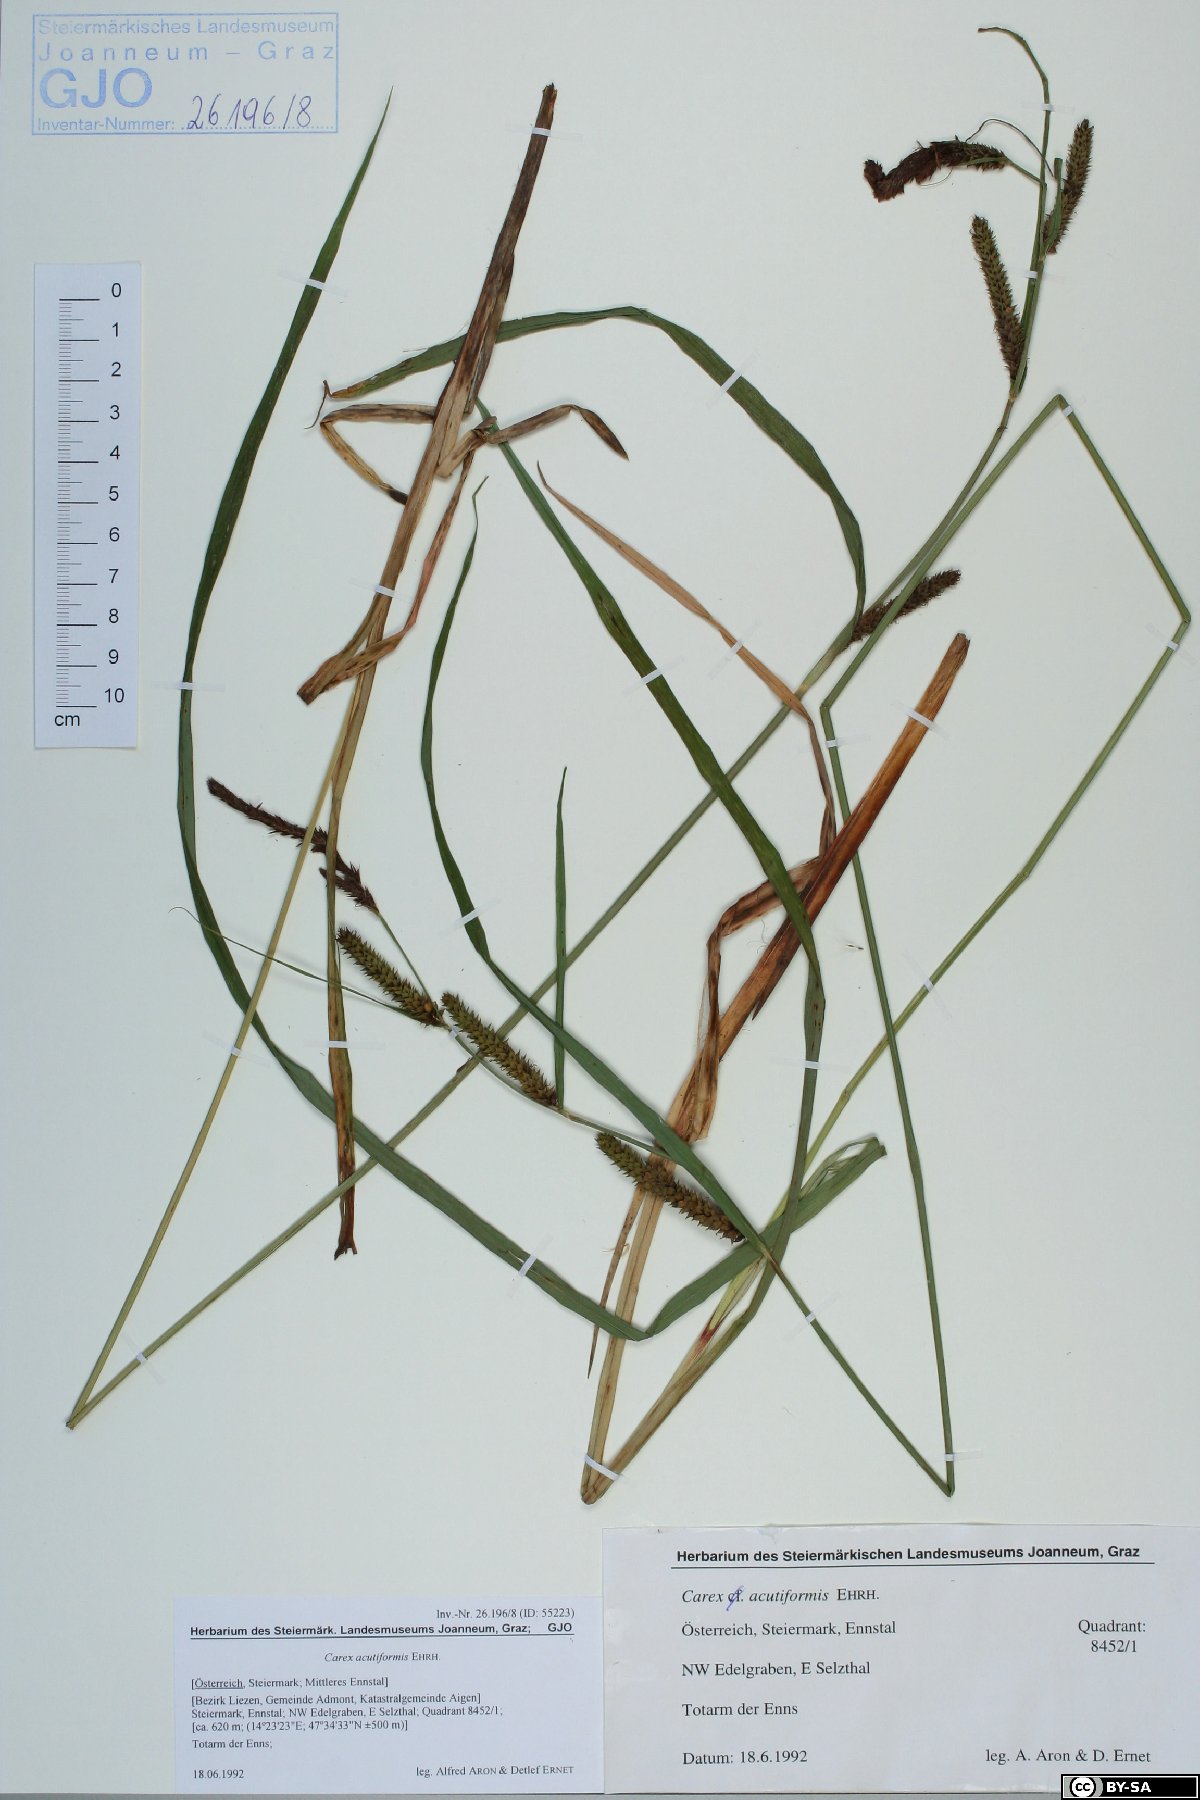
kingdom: Plantae
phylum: Tracheophyta
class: Liliopsida
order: Poales
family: Cyperaceae
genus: Carex
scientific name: Carex acutiformis
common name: Lesser pond-sedge
